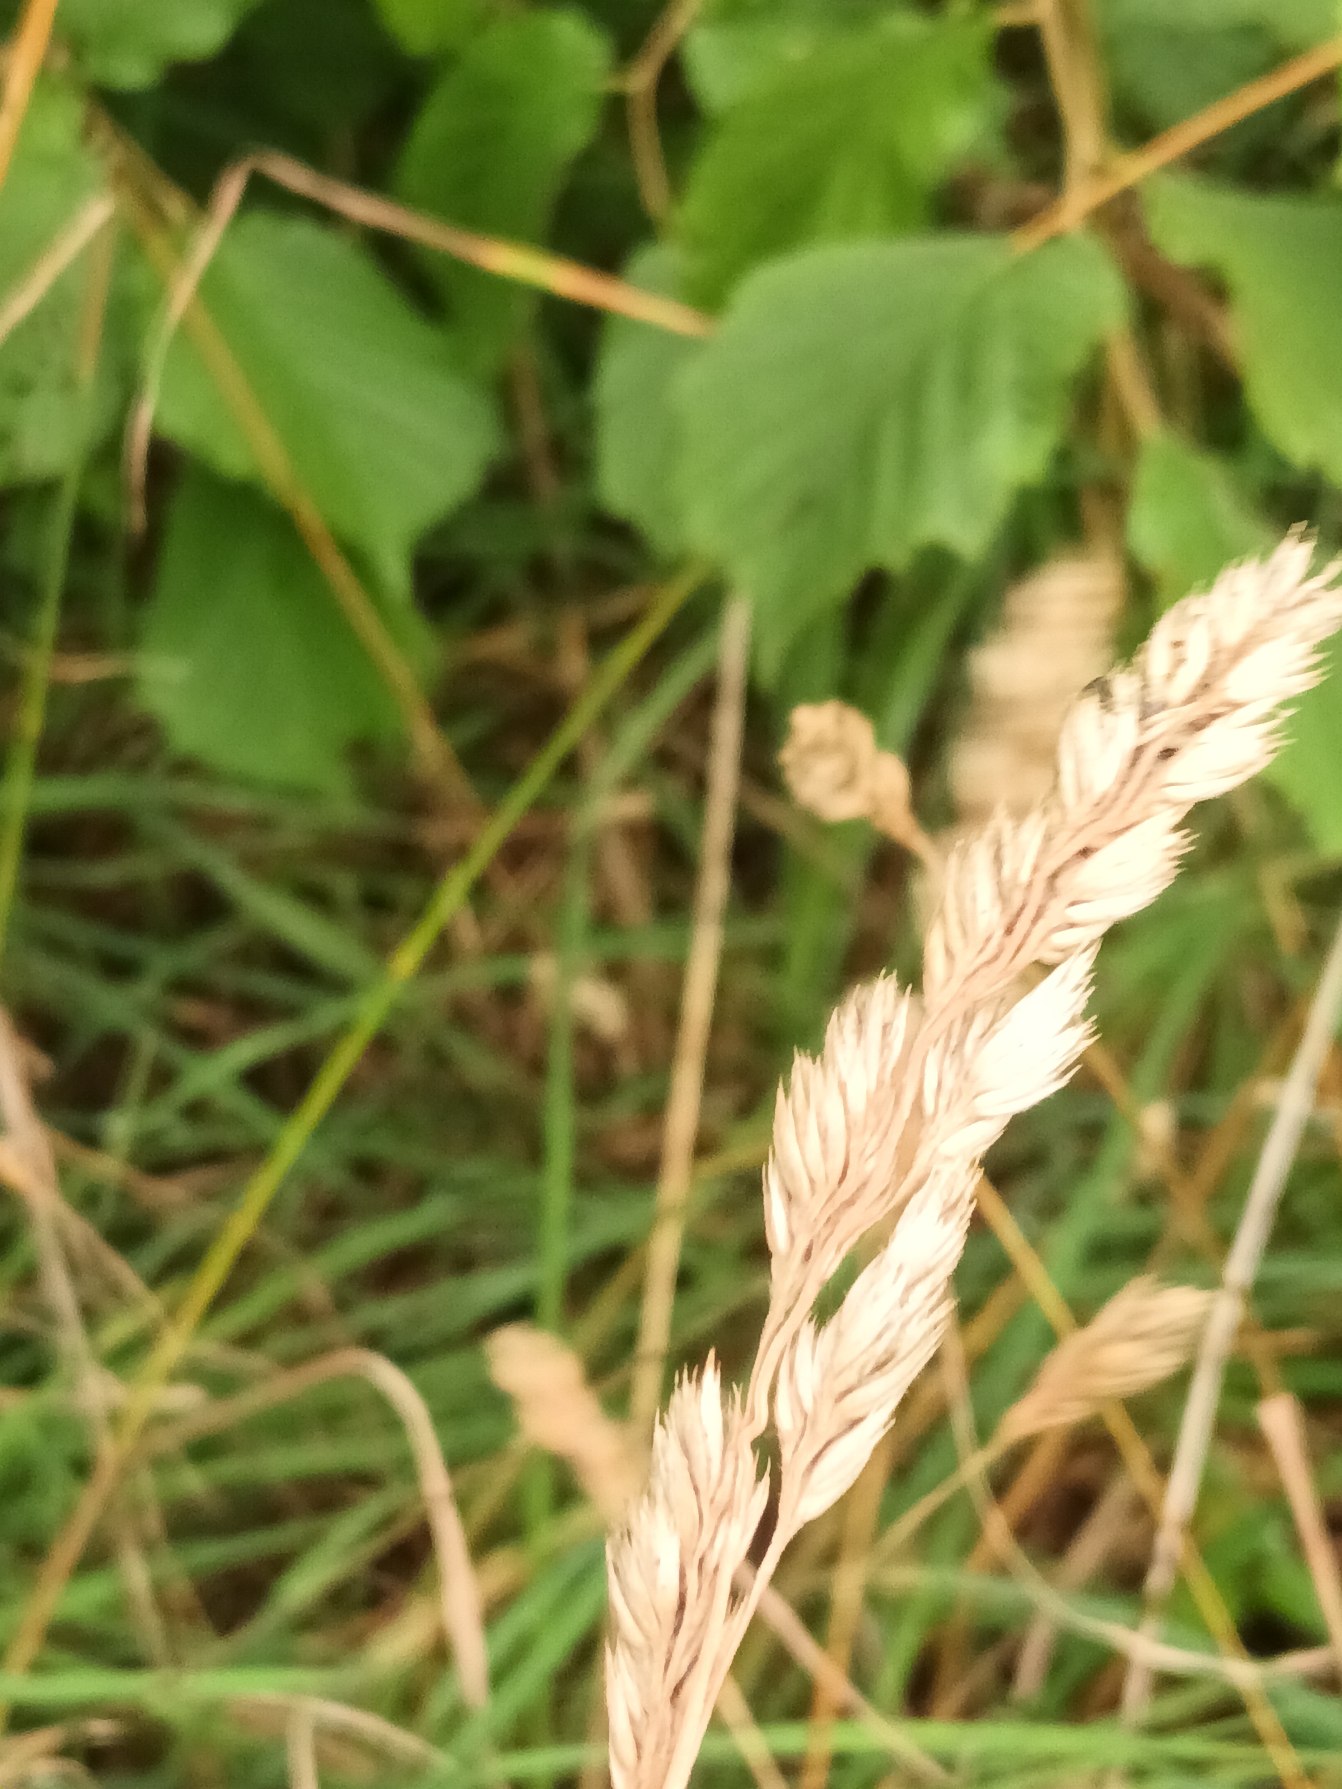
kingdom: Plantae
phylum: Tracheophyta
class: Liliopsida
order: Poales
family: Poaceae
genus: Dactylis
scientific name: Dactylis glomerata
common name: Almindelig hundegræs
